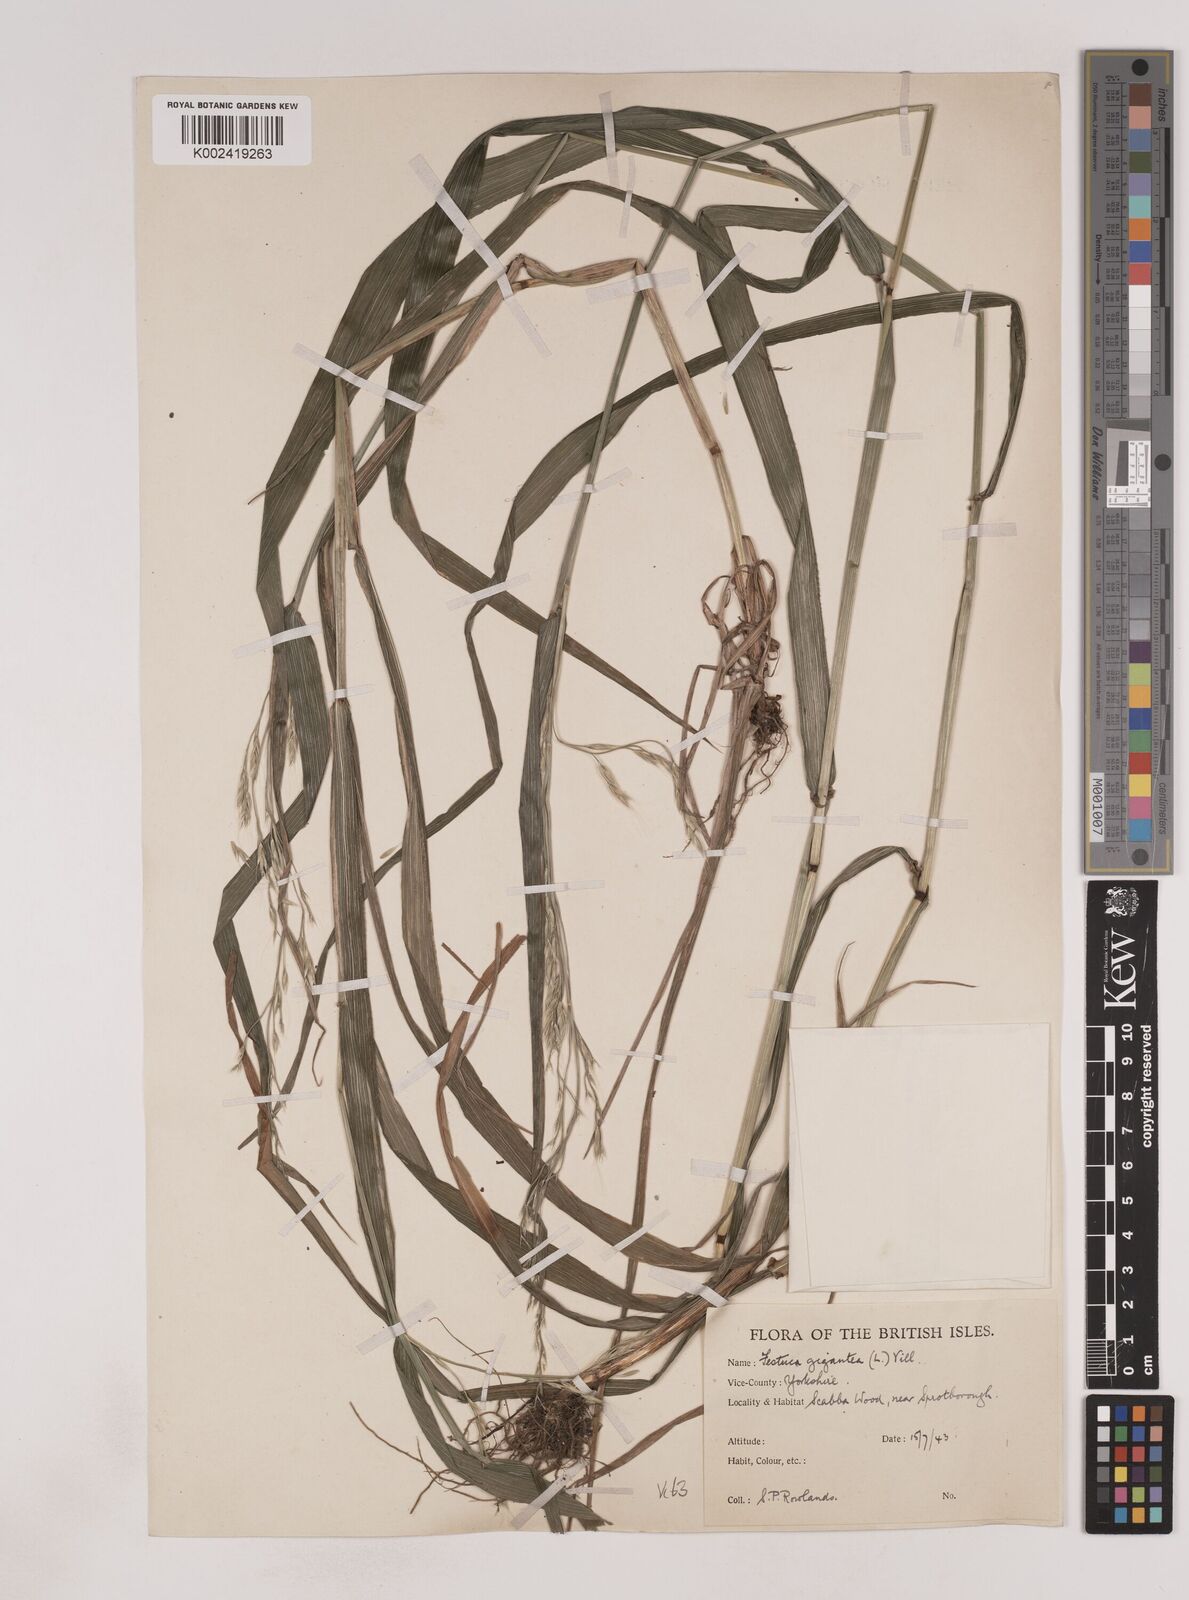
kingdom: Plantae
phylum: Tracheophyta
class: Liliopsida
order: Poales
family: Poaceae
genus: Lolium
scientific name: Lolium giganteum
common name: Giant fescue
